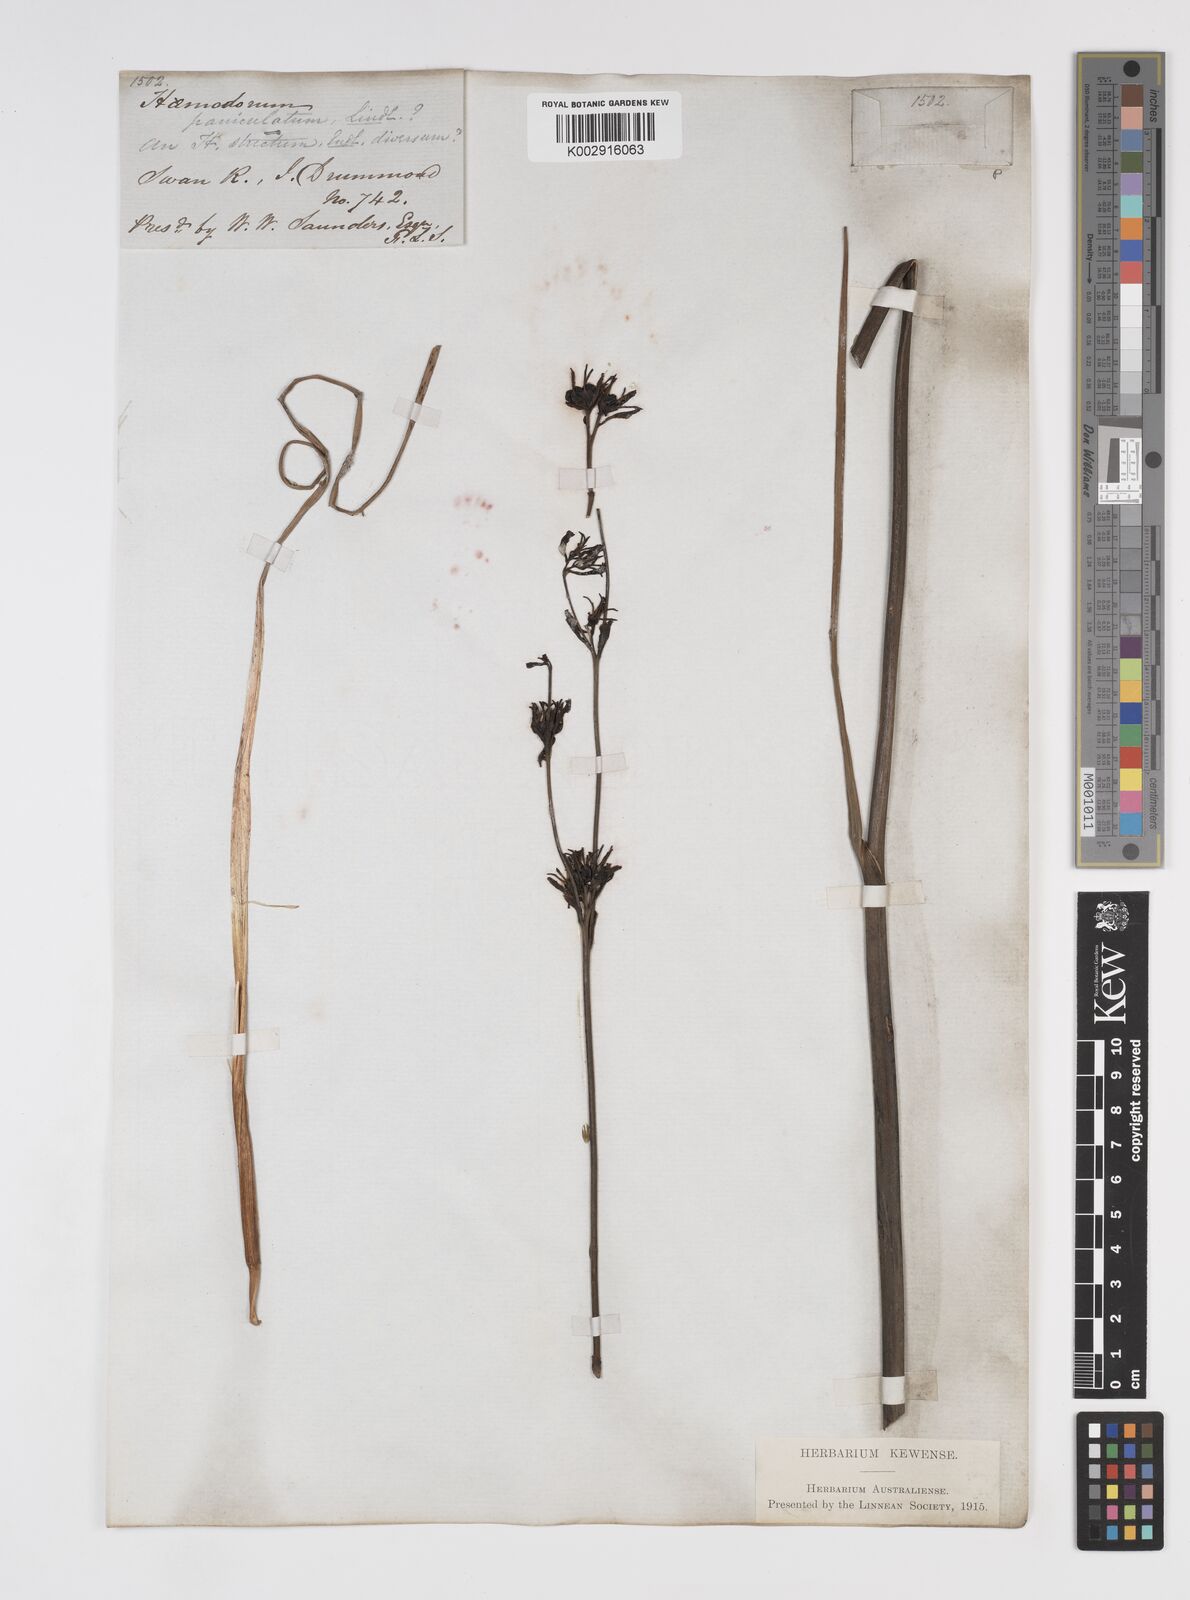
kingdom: Plantae
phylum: Tracheophyta
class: Liliopsida
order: Commelinales
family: Haemodoraceae
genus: Haemodorum
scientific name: Haemodorum paniculatum
